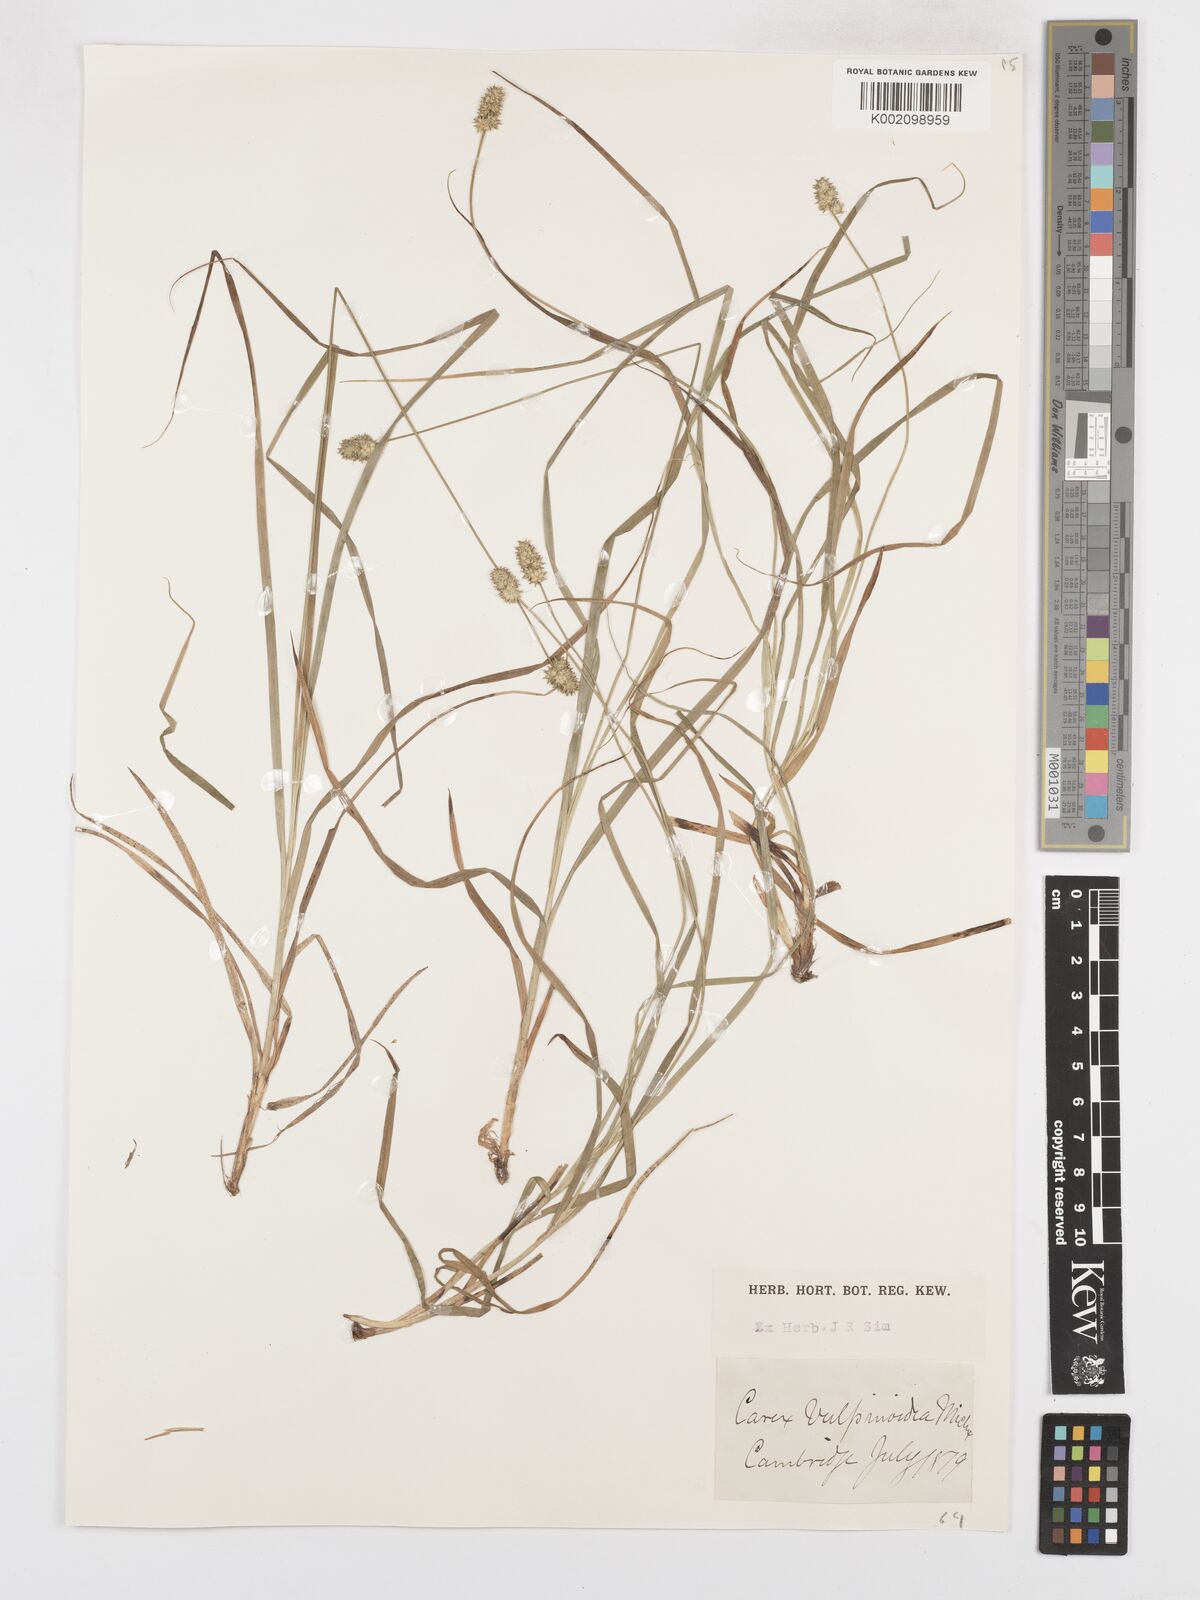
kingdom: Plantae
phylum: Tracheophyta
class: Liliopsida
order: Poales
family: Cyperaceae
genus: Carex
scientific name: Carex vulpinoidea
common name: American fox-sedge
